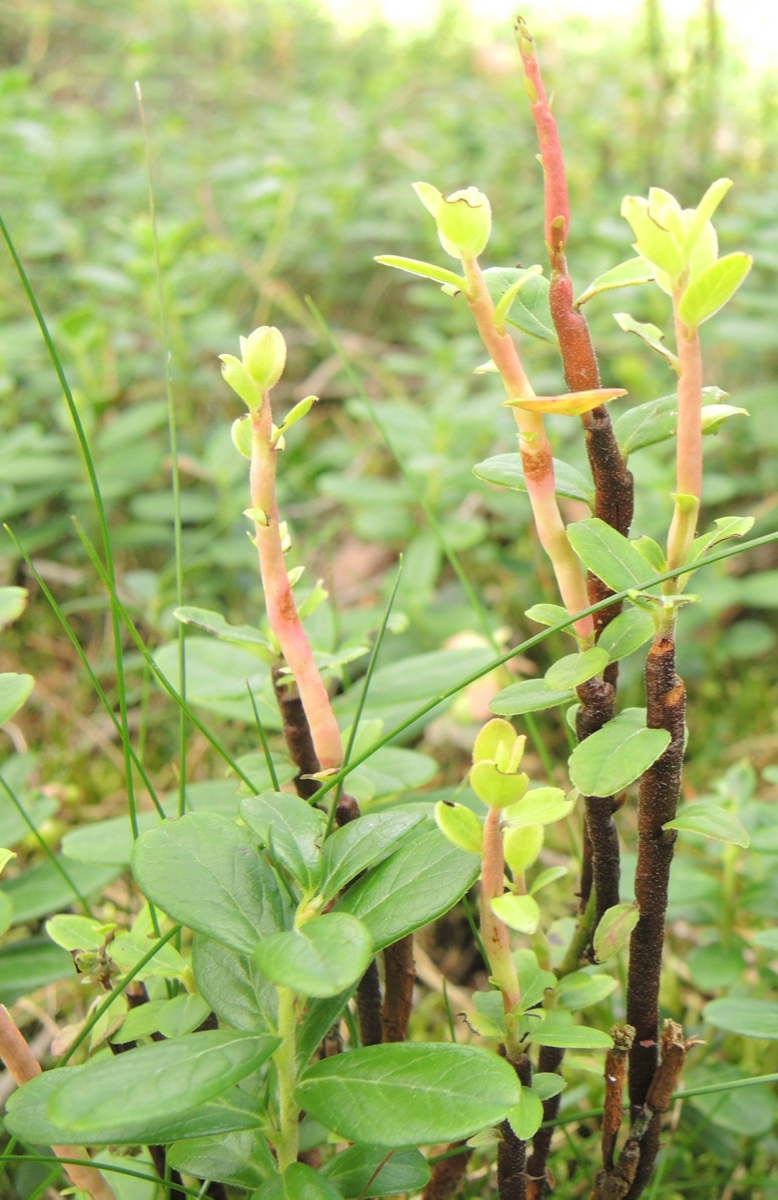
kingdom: Fungi
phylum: Basidiomycota
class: Pucciniomycetes
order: Pucciniales
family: Pucciniastraceae
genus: Calyptospora
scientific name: Calyptospora columnaris
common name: Huckleberry broom rust fungus
